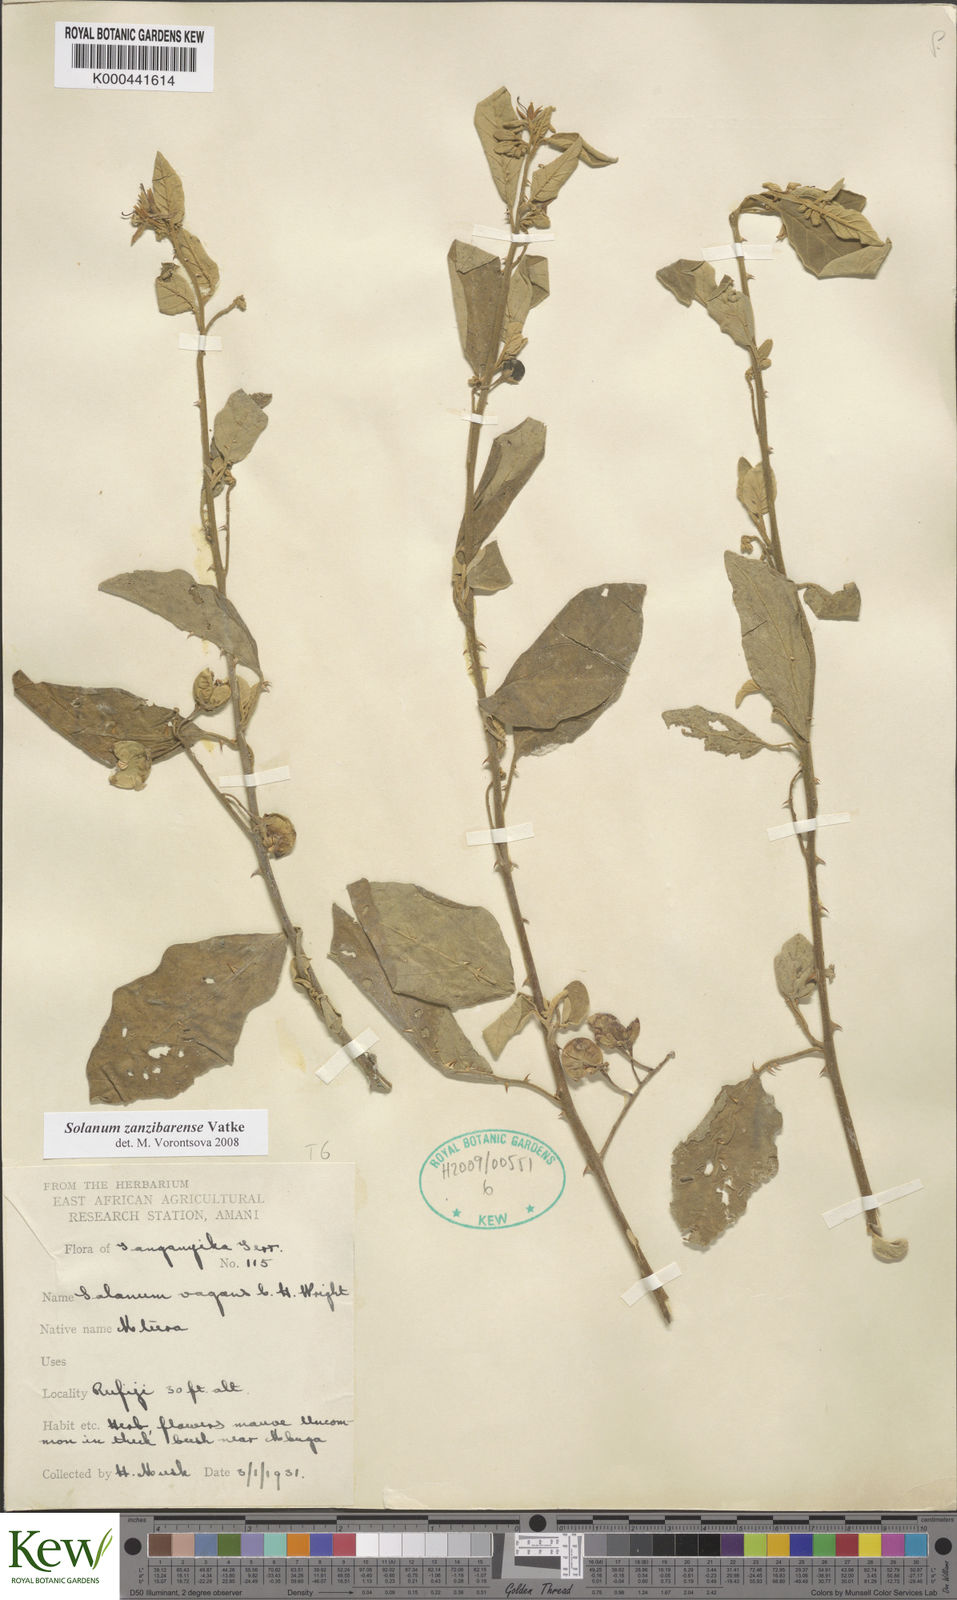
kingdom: Plantae
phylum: Tracheophyta
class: Magnoliopsida
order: Solanales
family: Solanaceae
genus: Solanum
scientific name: Solanum zanzibarense
